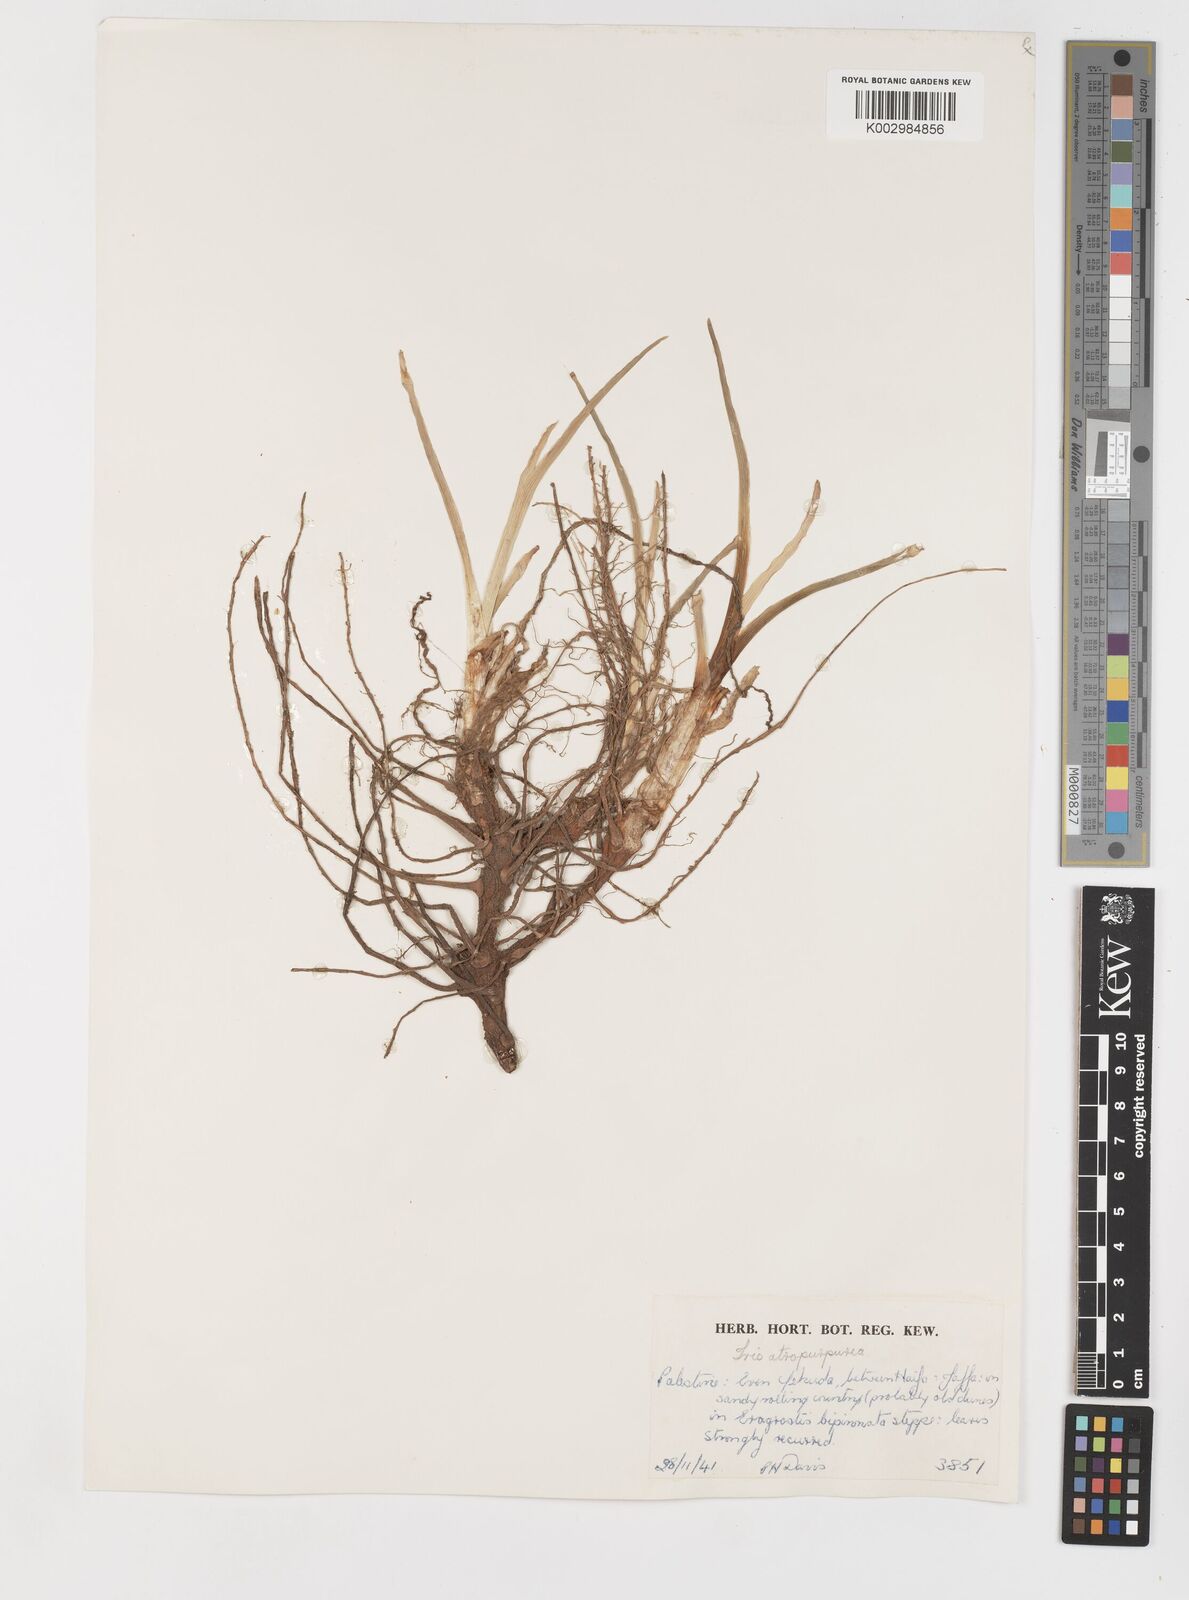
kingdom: Plantae
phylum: Tracheophyta
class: Liliopsida
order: Asparagales
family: Iridaceae
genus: Iris
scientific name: Iris atropurpurea
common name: Coastal iris
